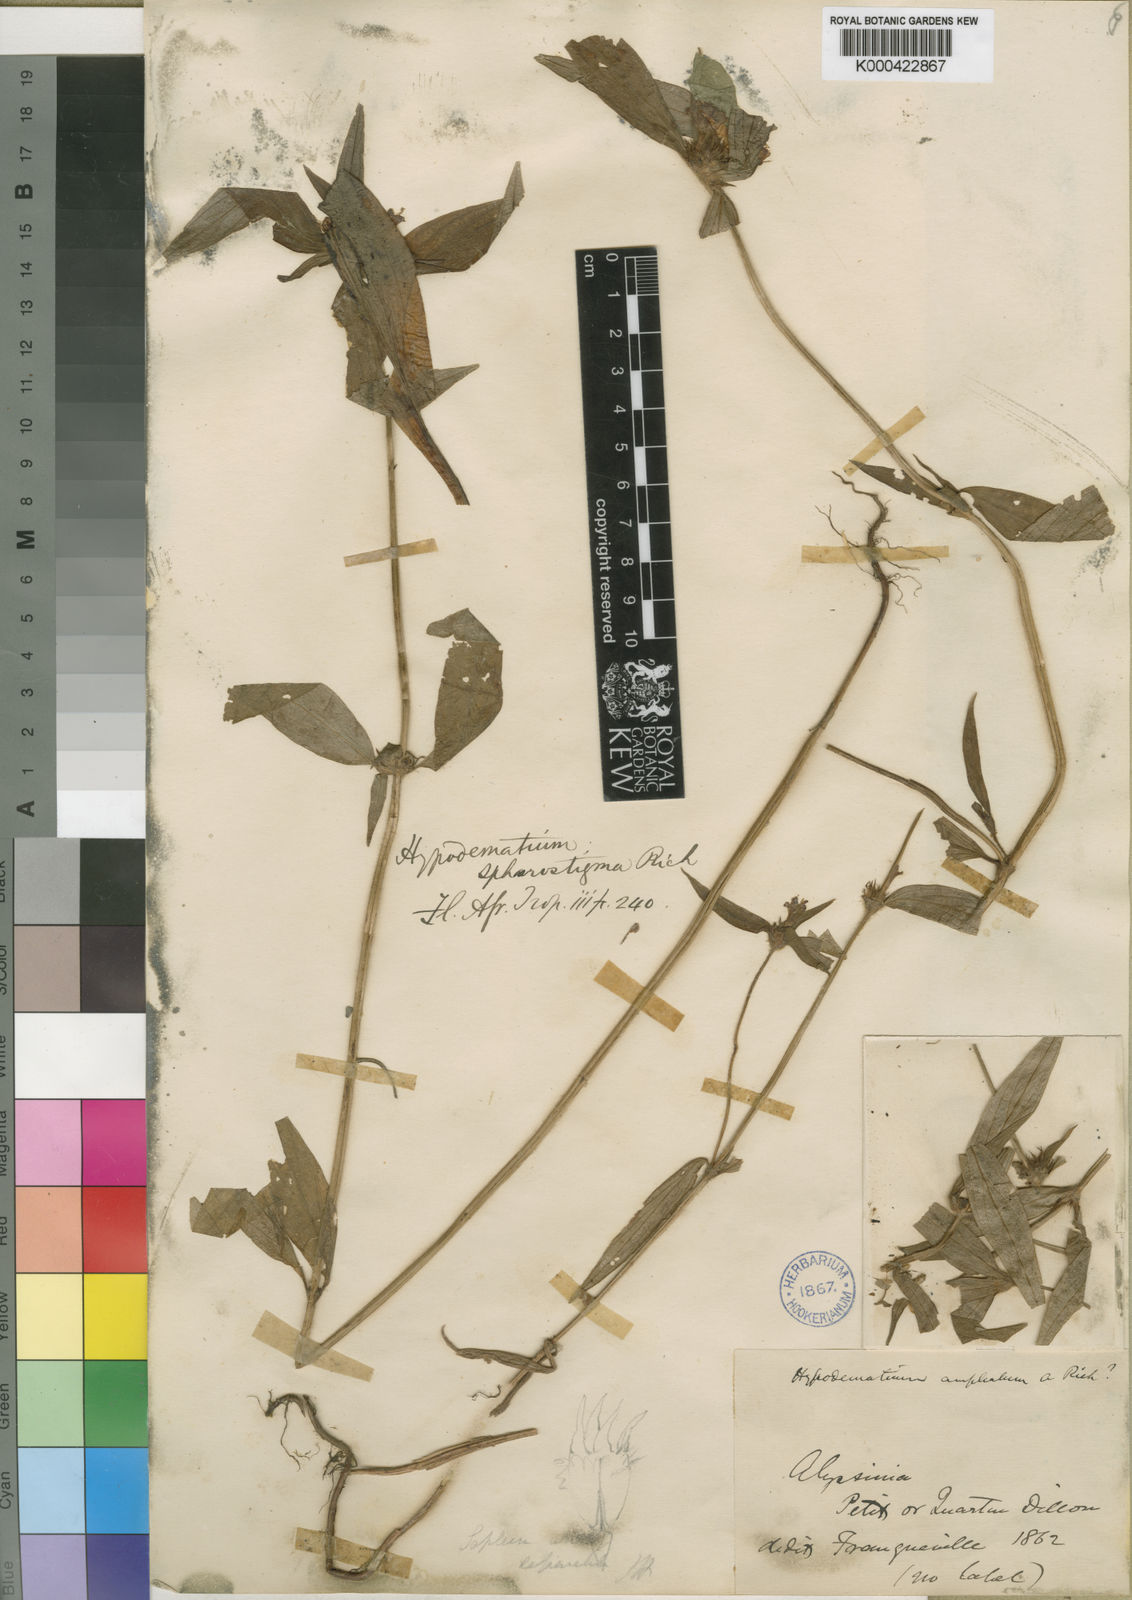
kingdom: Plantae
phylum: Tracheophyta
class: Magnoliopsida
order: Gentianales
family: Rubiaceae
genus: Spermacoce
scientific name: Spermacoce sphaerostigma
